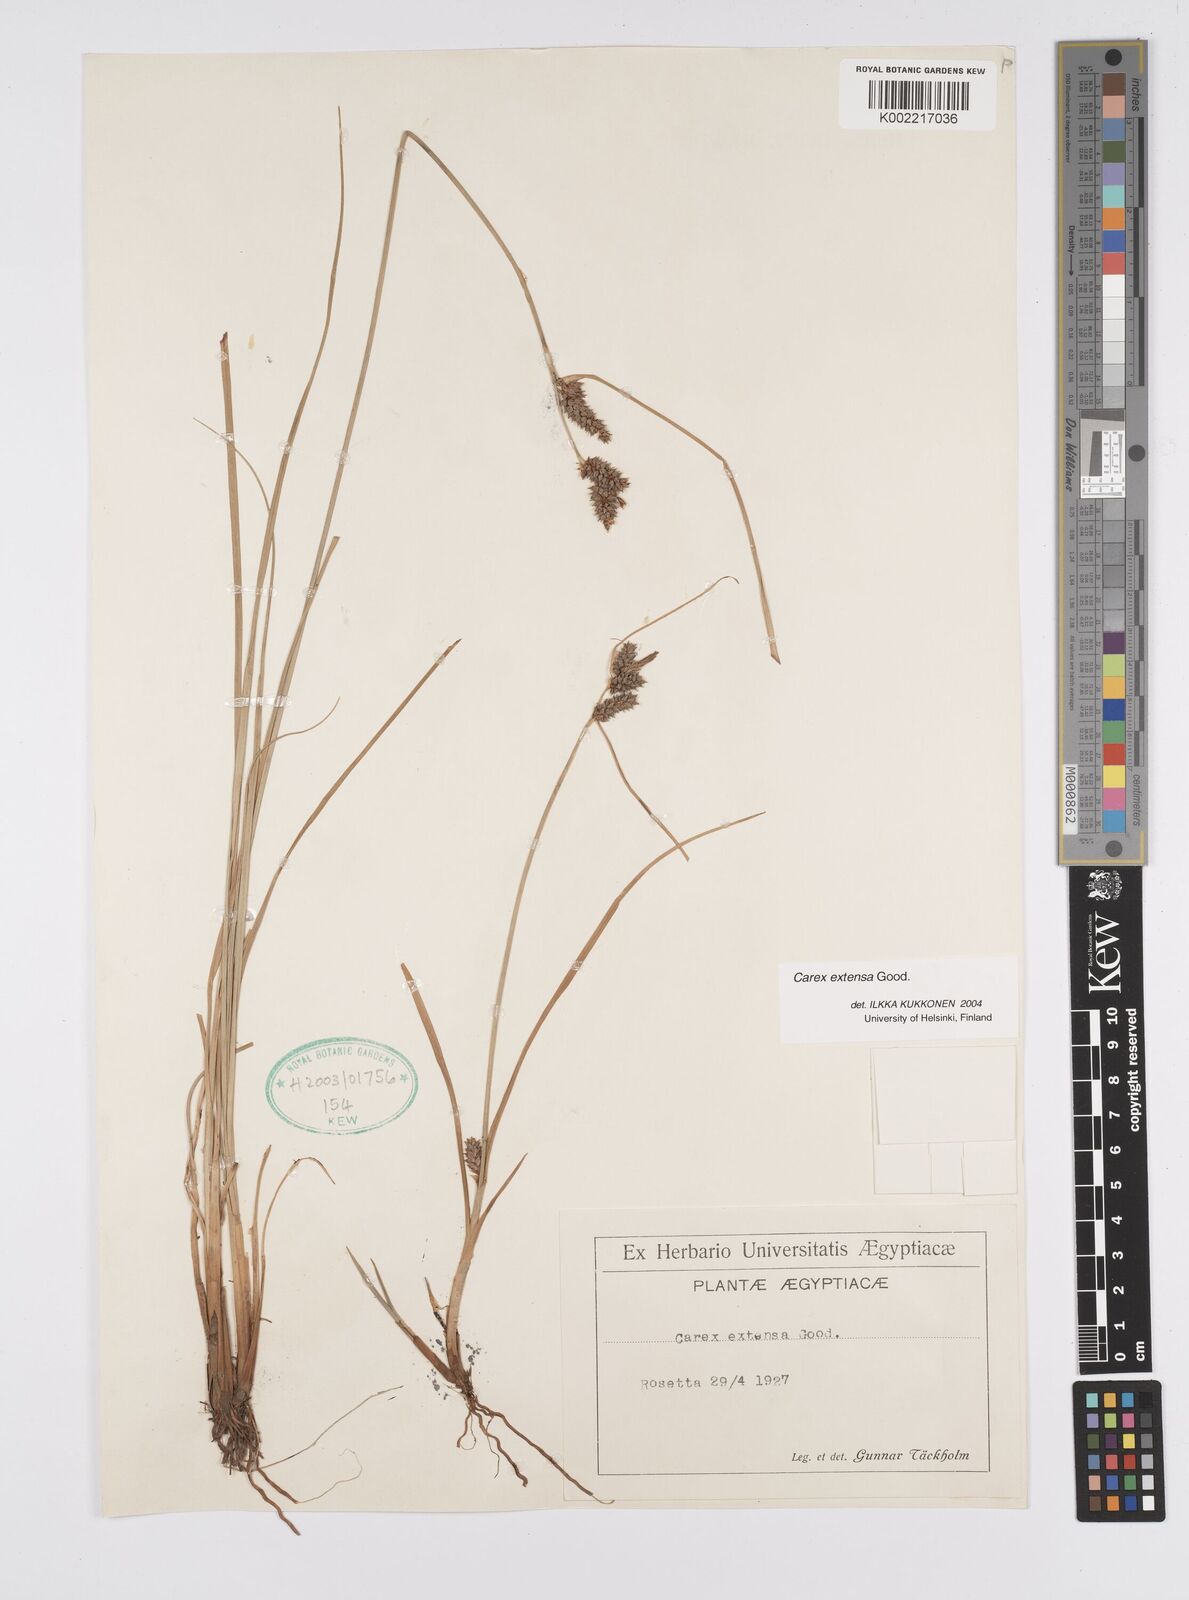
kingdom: Plantae
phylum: Tracheophyta
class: Liliopsida
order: Poales
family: Cyperaceae
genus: Carex
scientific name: Carex extensa
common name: Long-bracted sedge
